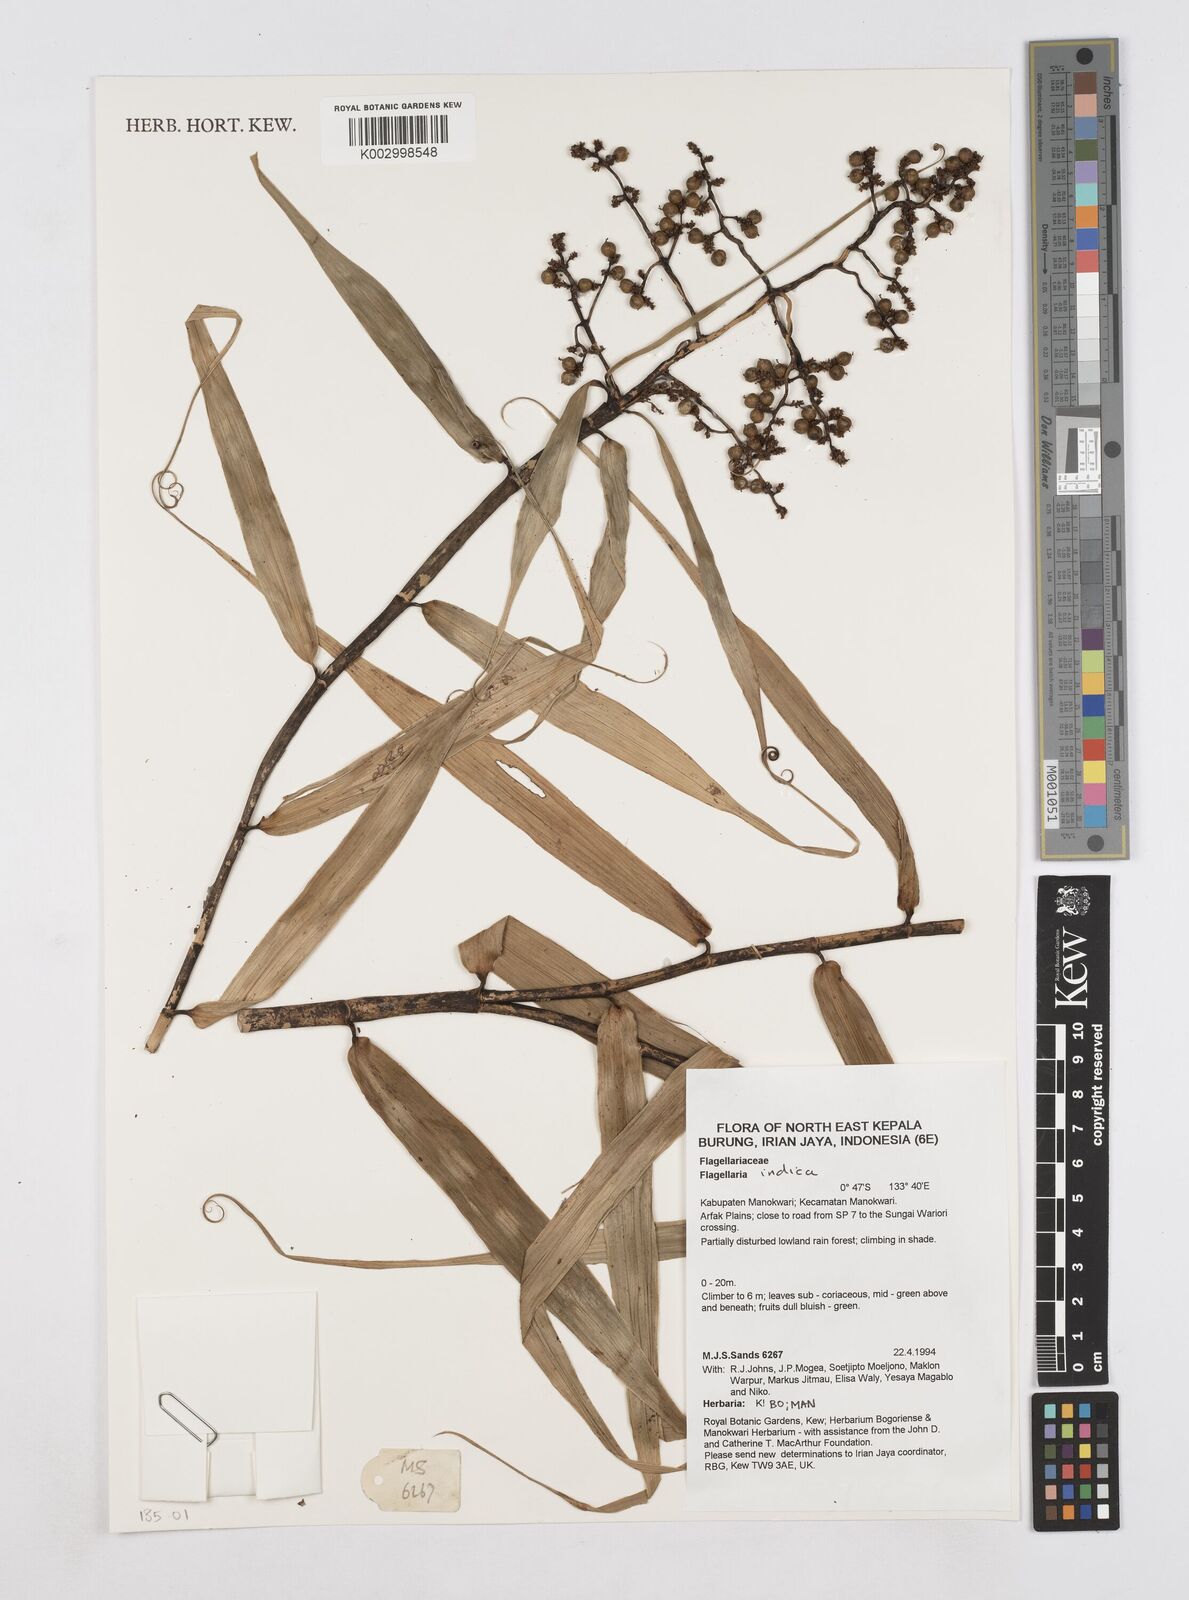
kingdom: Plantae
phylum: Tracheophyta
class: Liliopsida
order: Poales
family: Flagellariaceae
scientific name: Flagellariaceae
